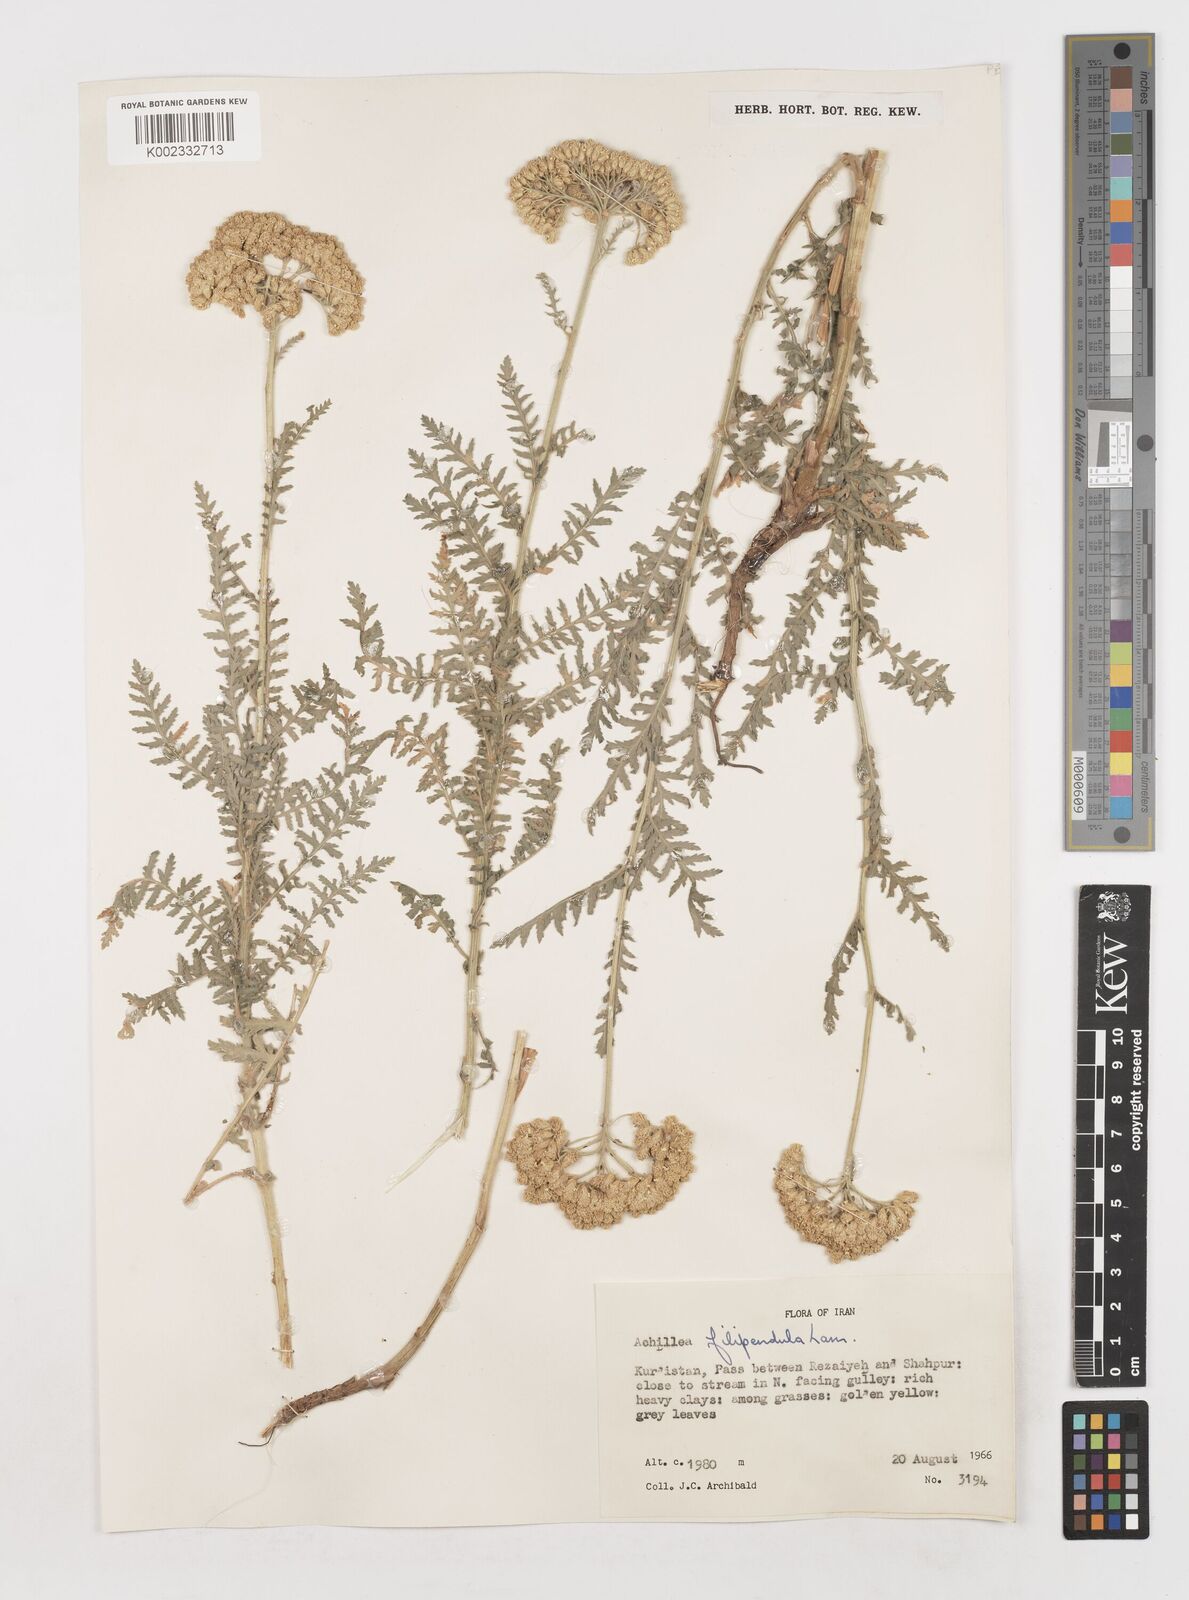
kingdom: Plantae
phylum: Tracheophyta
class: Magnoliopsida
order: Asterales
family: Asteraceae
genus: Achillea
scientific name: Achillea filipendulina
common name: Fernleaf yarrow
